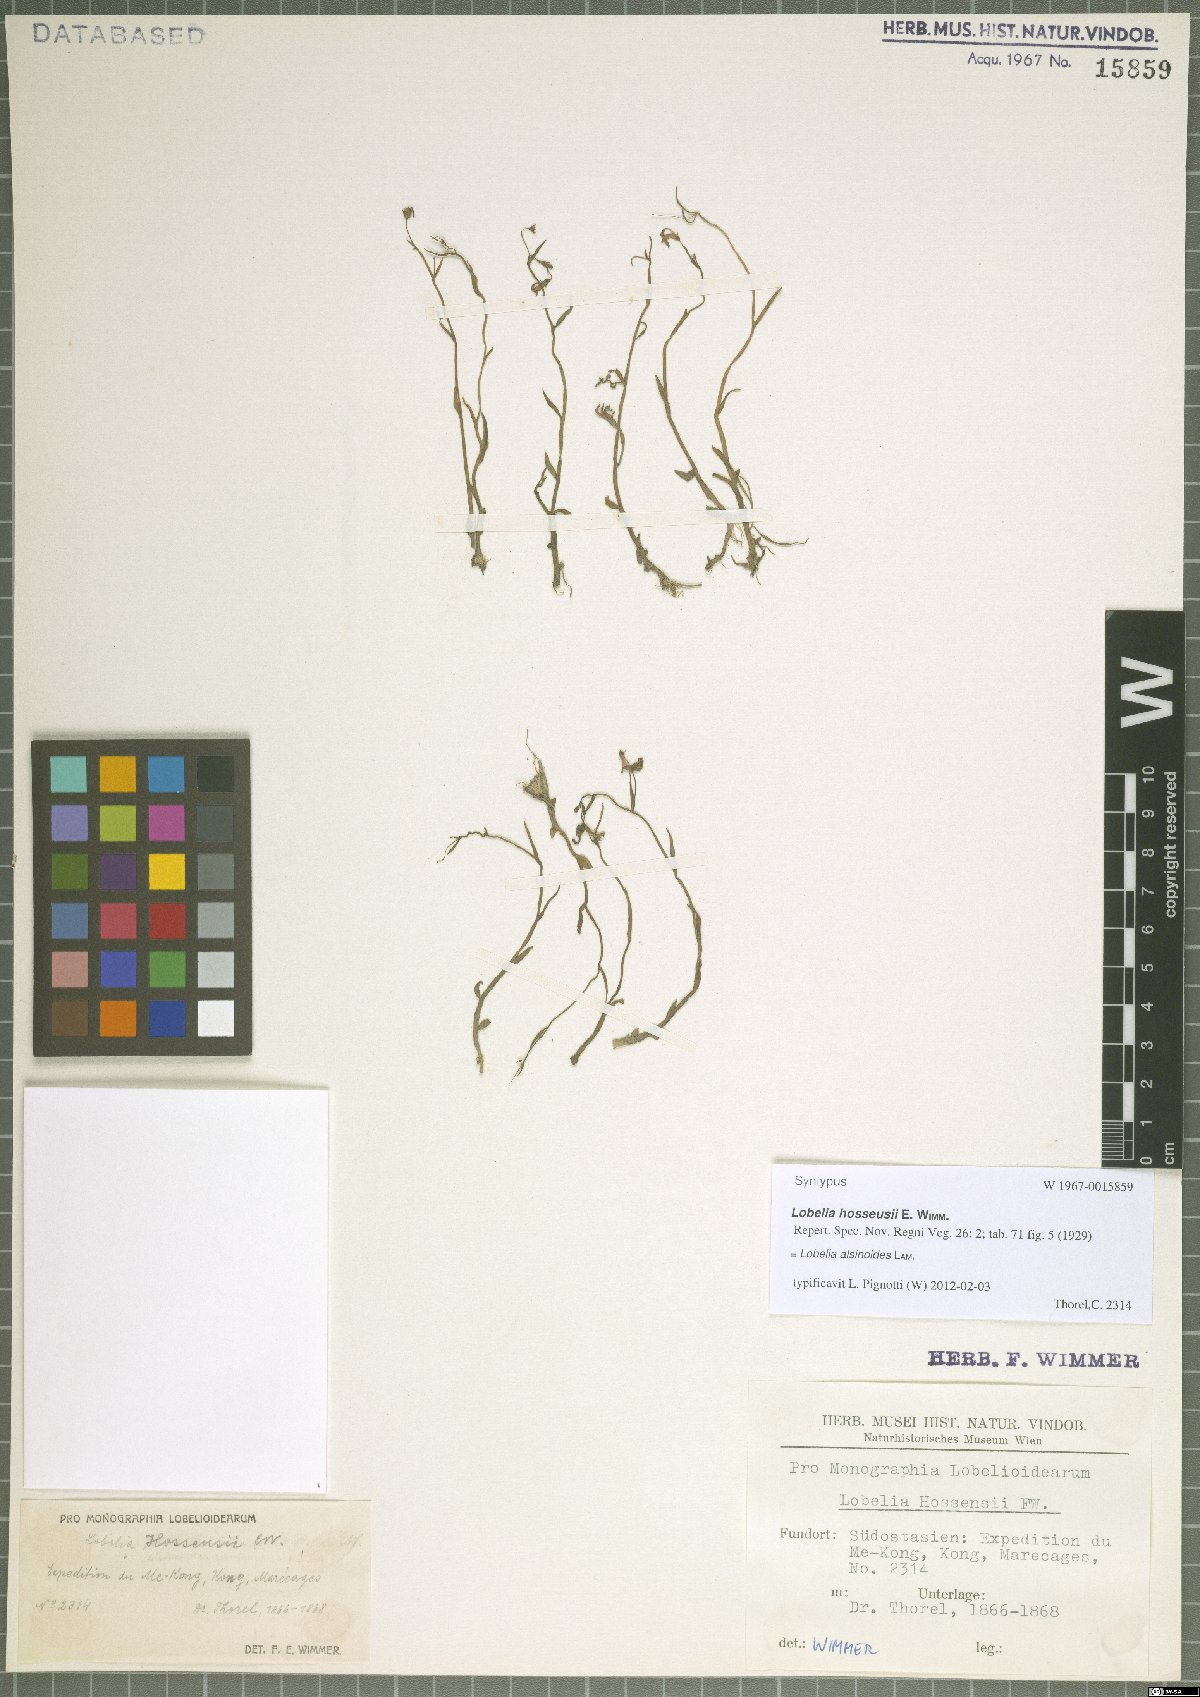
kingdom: Plantae
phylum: Tracheophyta
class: Magnoliopsida
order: Asterales
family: Campanulaceae
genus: Lobelia
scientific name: Lobelia alsinoides
